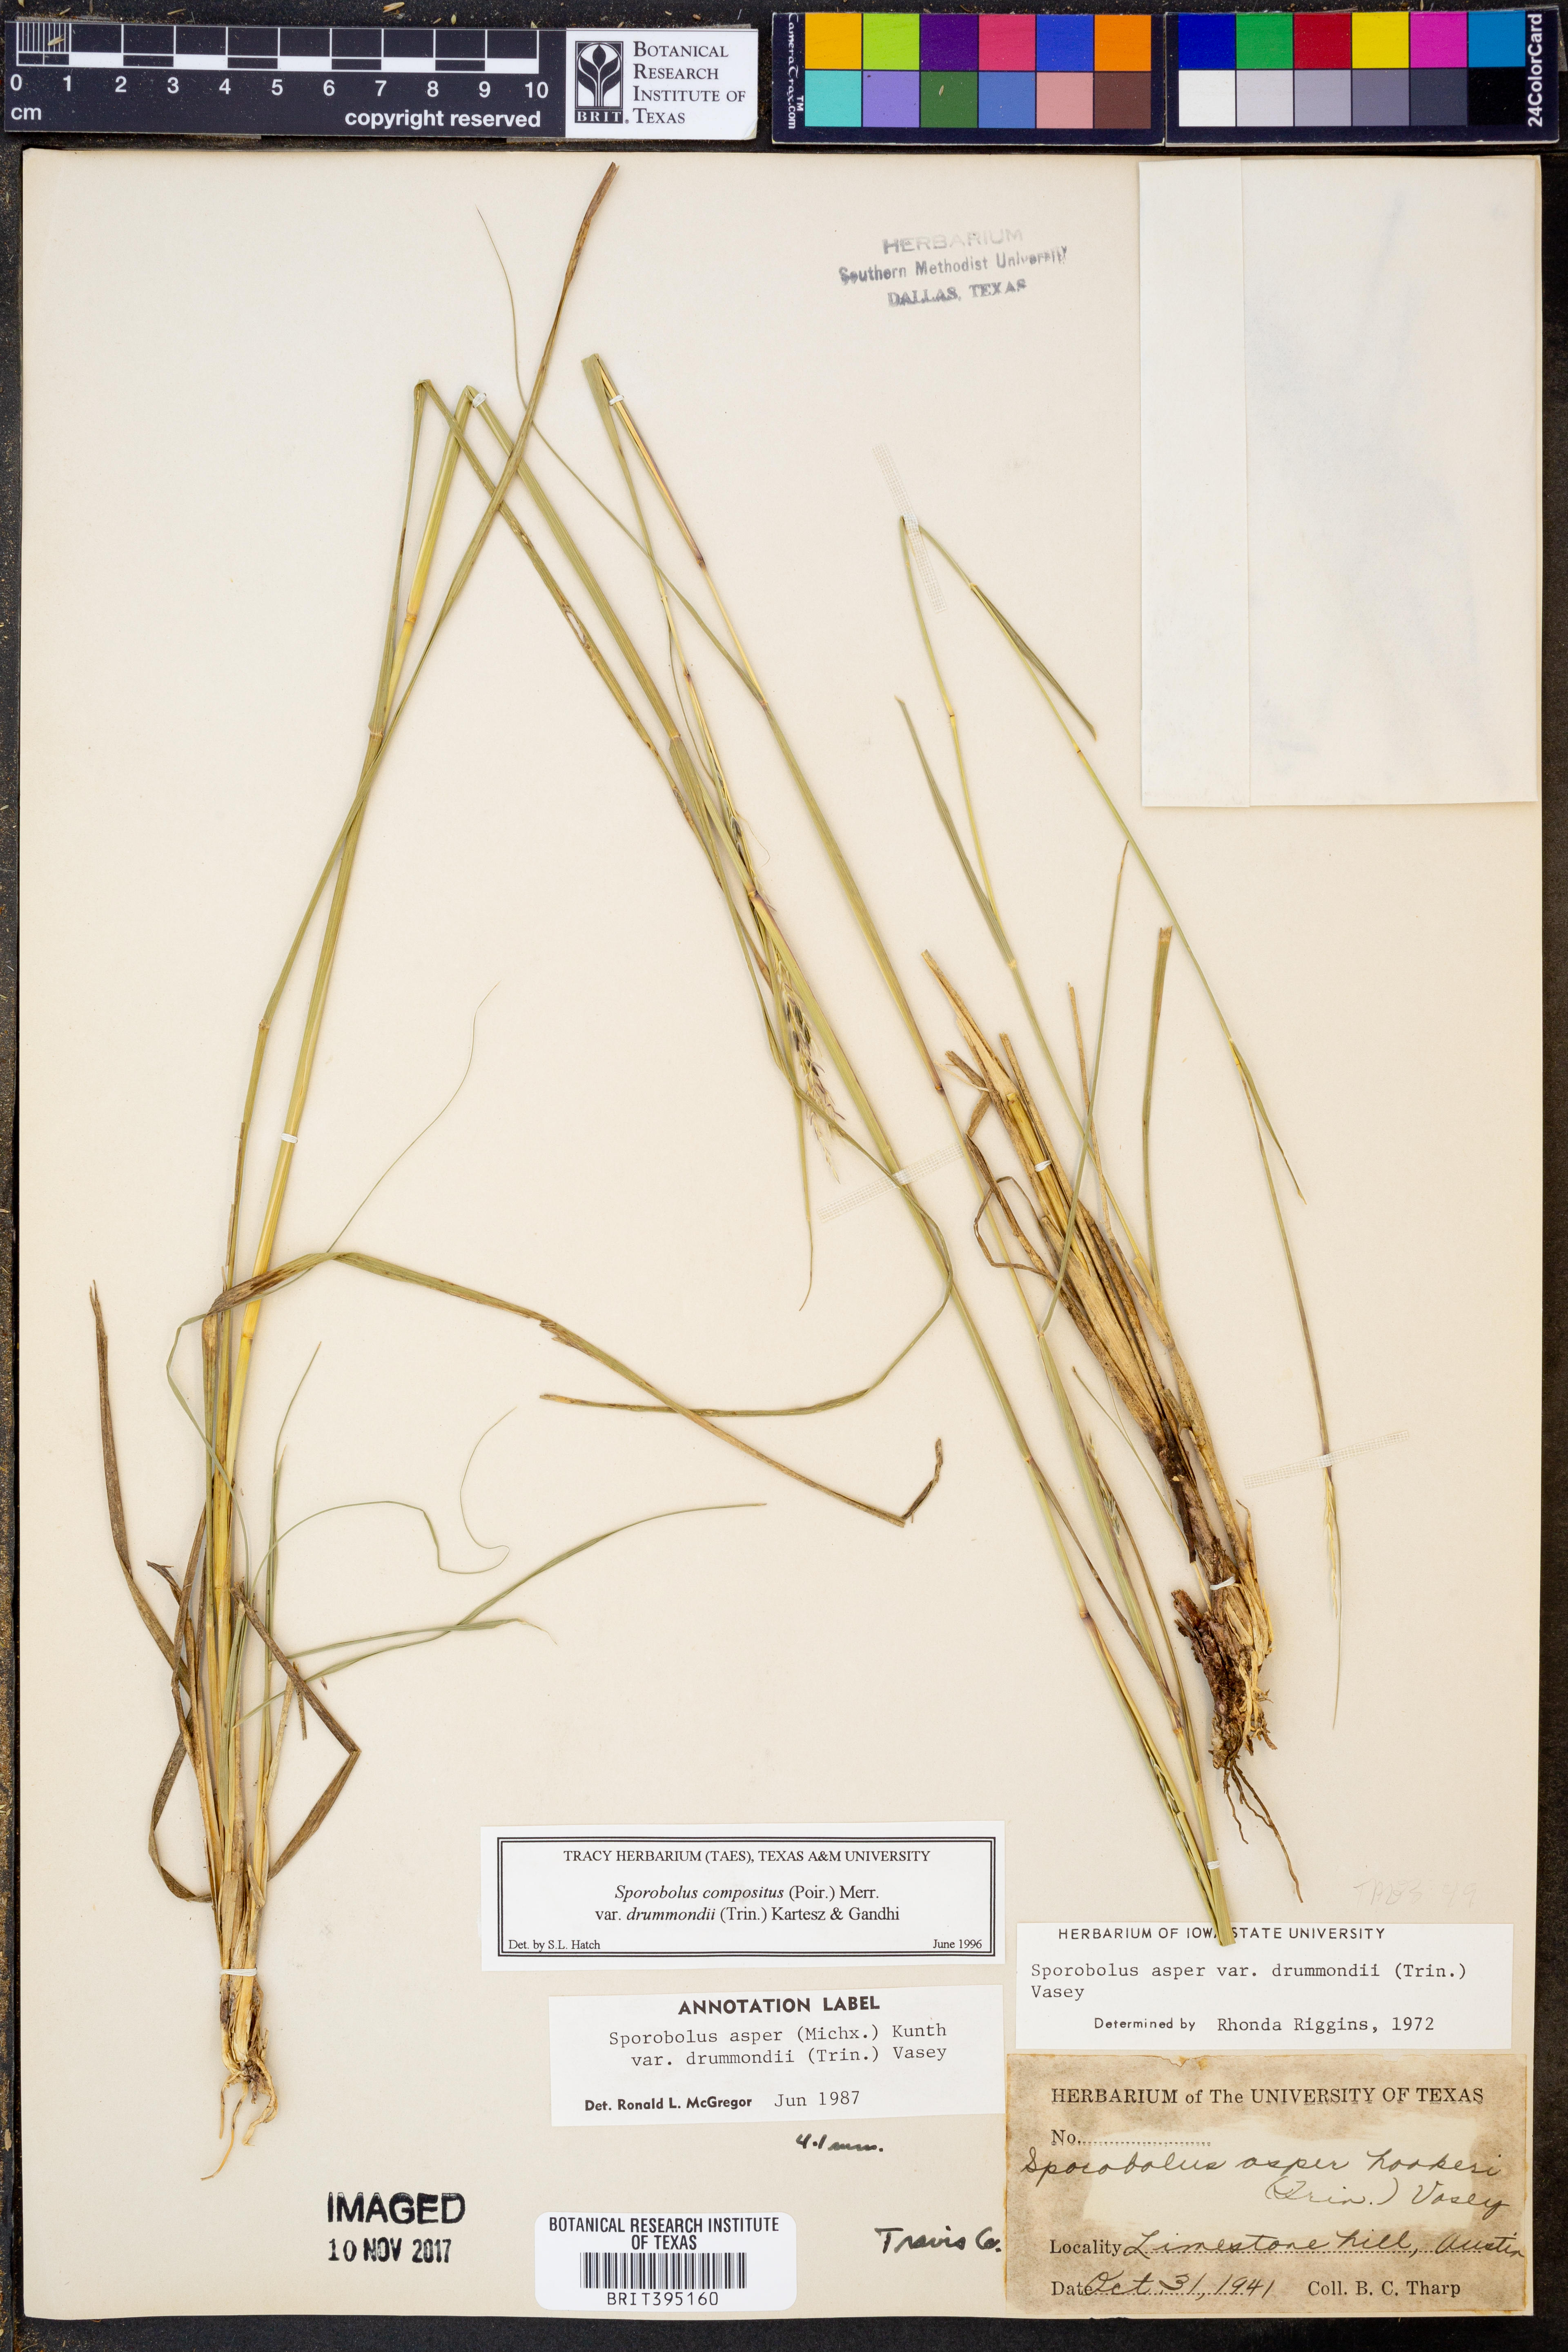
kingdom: Plantae
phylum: Tracheophyta
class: Liliopsida
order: Poales
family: Poaceae
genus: Sporobolus
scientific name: Sporobolus compositus
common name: Rough dropseed
